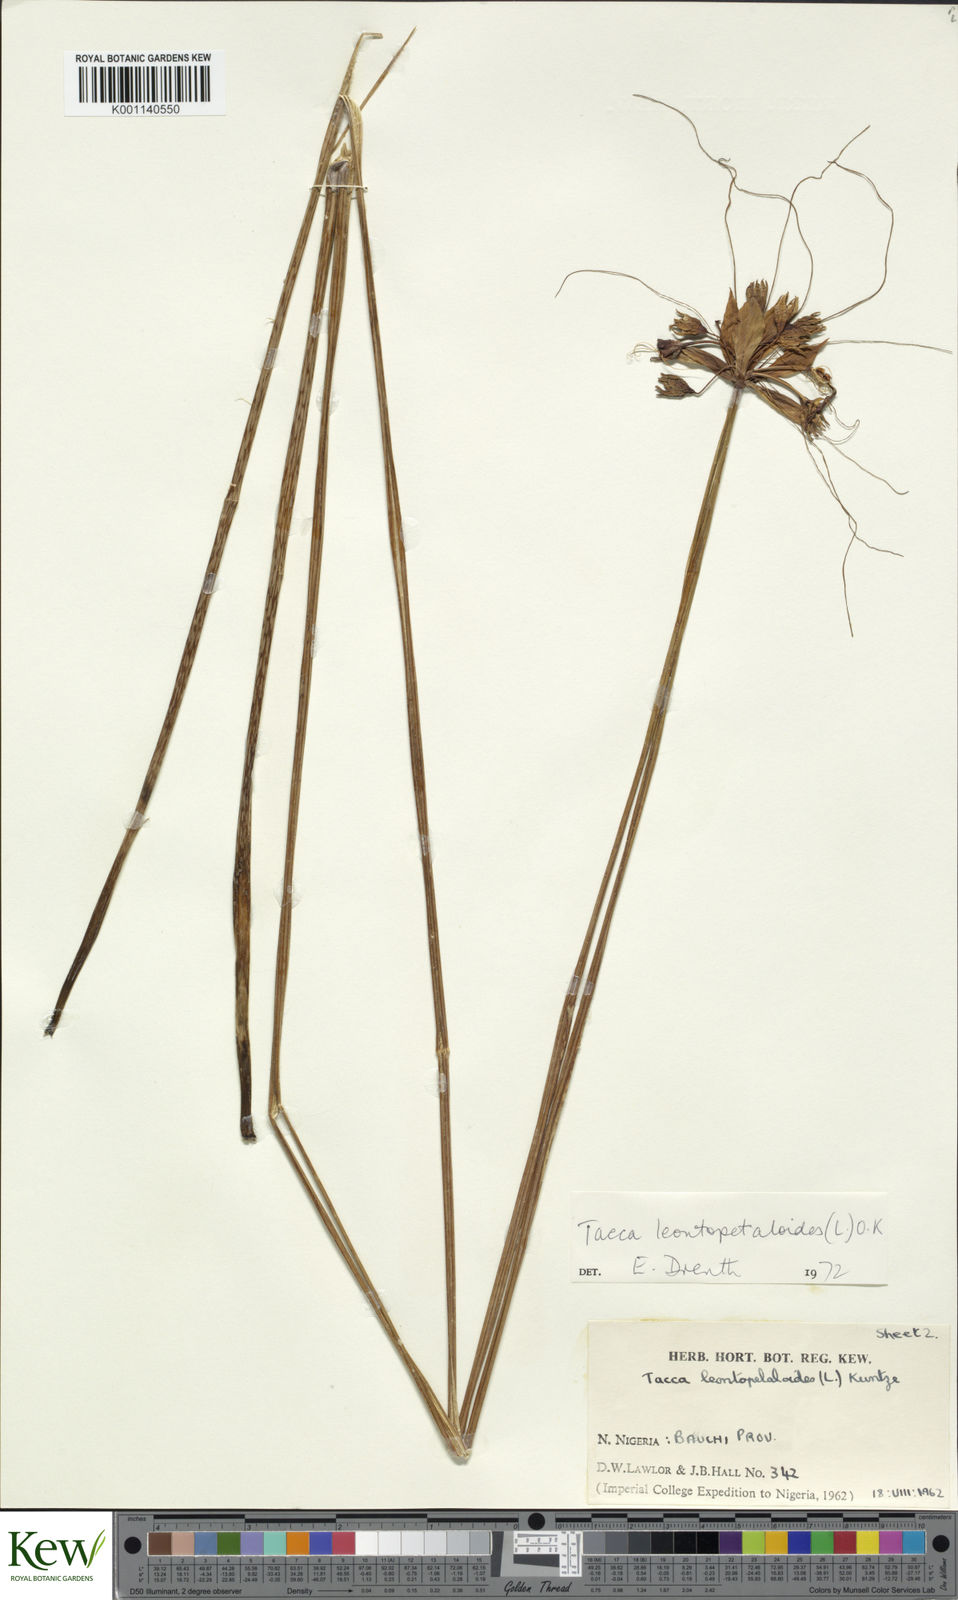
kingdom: Plantae
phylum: Tracheophyta
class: Liliopsida
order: Dioscoreales
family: Dioscoreaceae
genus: Tacca
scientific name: Tacca leontopetaloides
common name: Arrowroot
